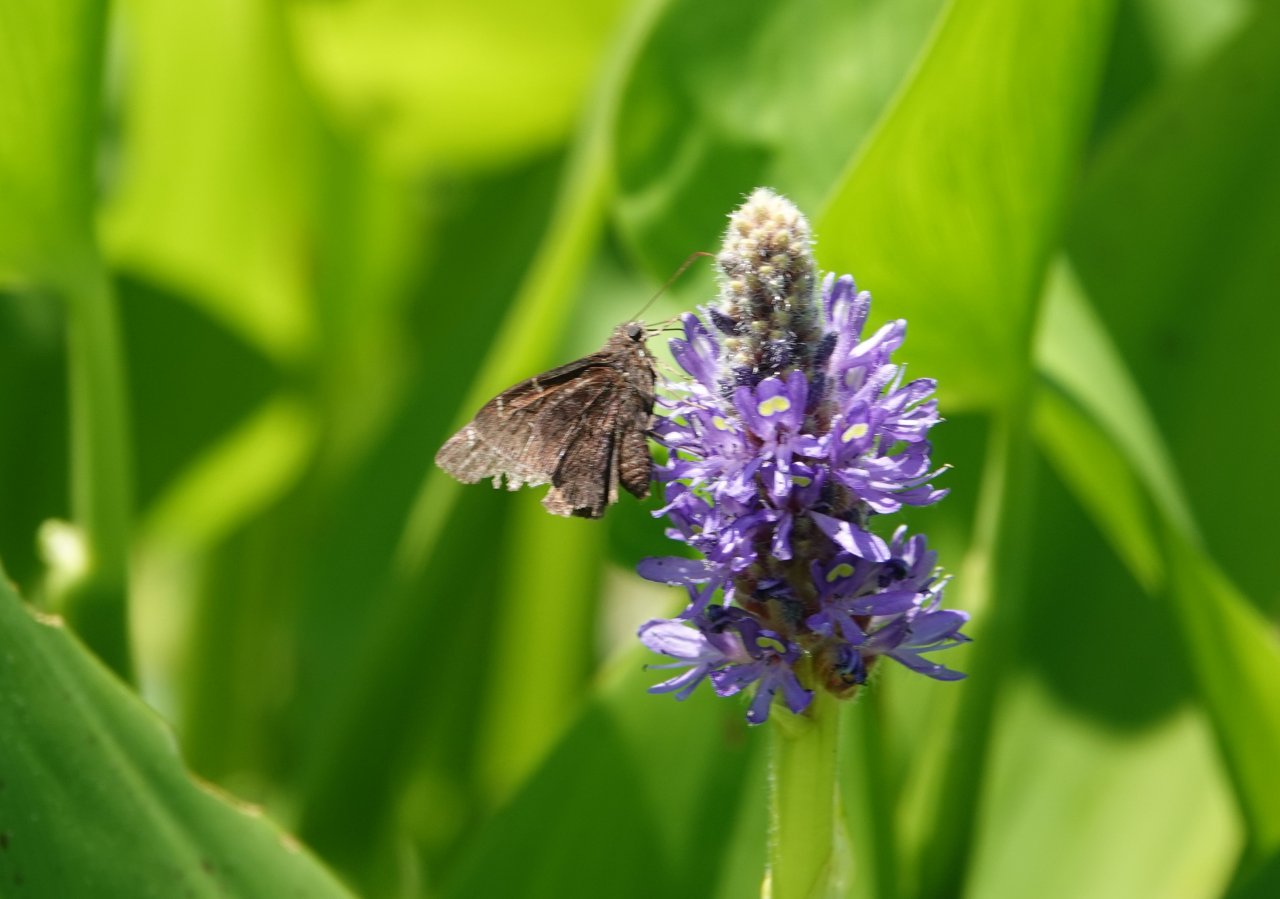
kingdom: Animalia
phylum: Arthropoda
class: Insecta
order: Lepidoptera
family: Hesperiidae
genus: Autochton
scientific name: Autochton
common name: Northern Cloudywing
